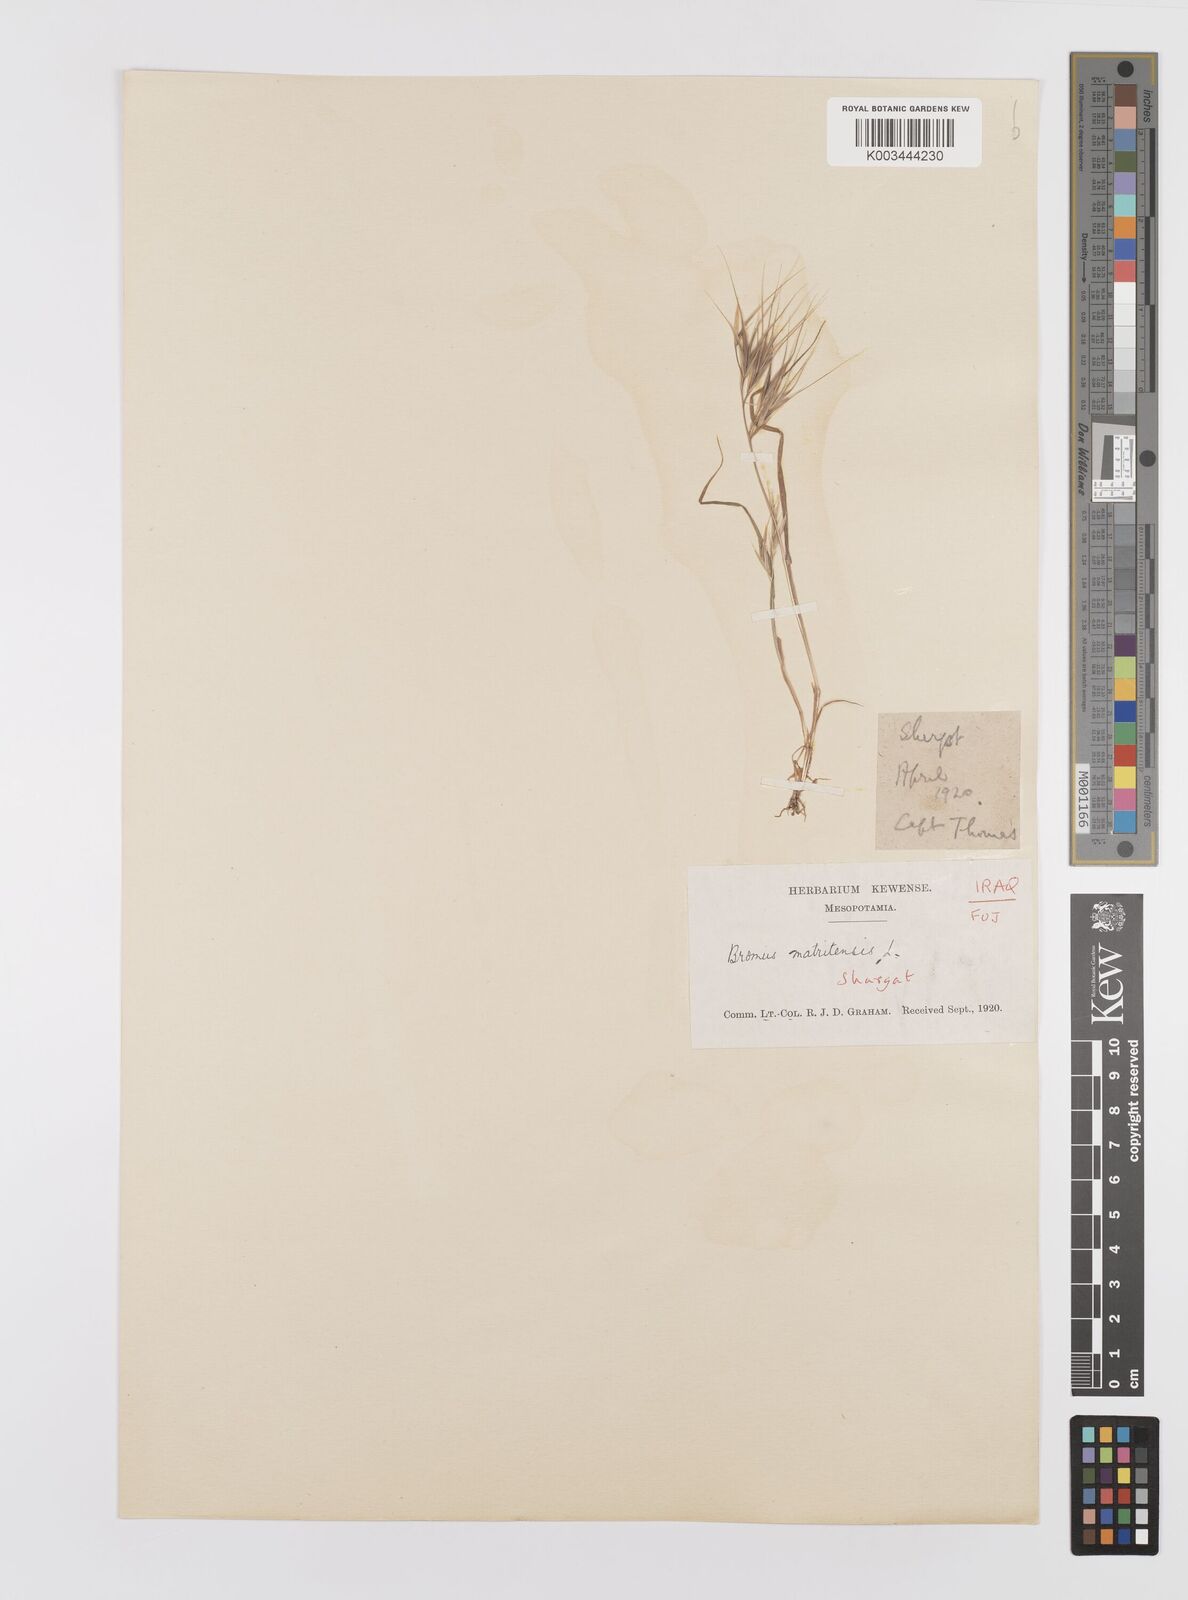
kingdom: Plantae
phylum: Tracheophyta
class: Liliopsida
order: Poales
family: Poaceae
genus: Bromus
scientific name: Bromus madritensis
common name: Compact brome
